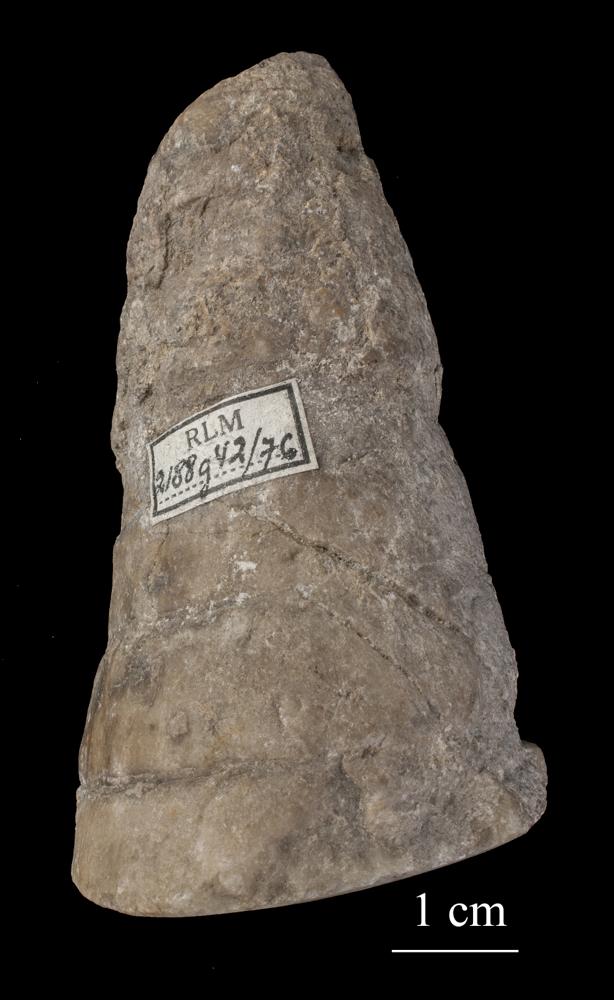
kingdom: Plantae
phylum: Tracheophyta
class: Pinopsida
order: Pinales
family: Cupressaceae
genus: Platycladus
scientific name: Platycladus
